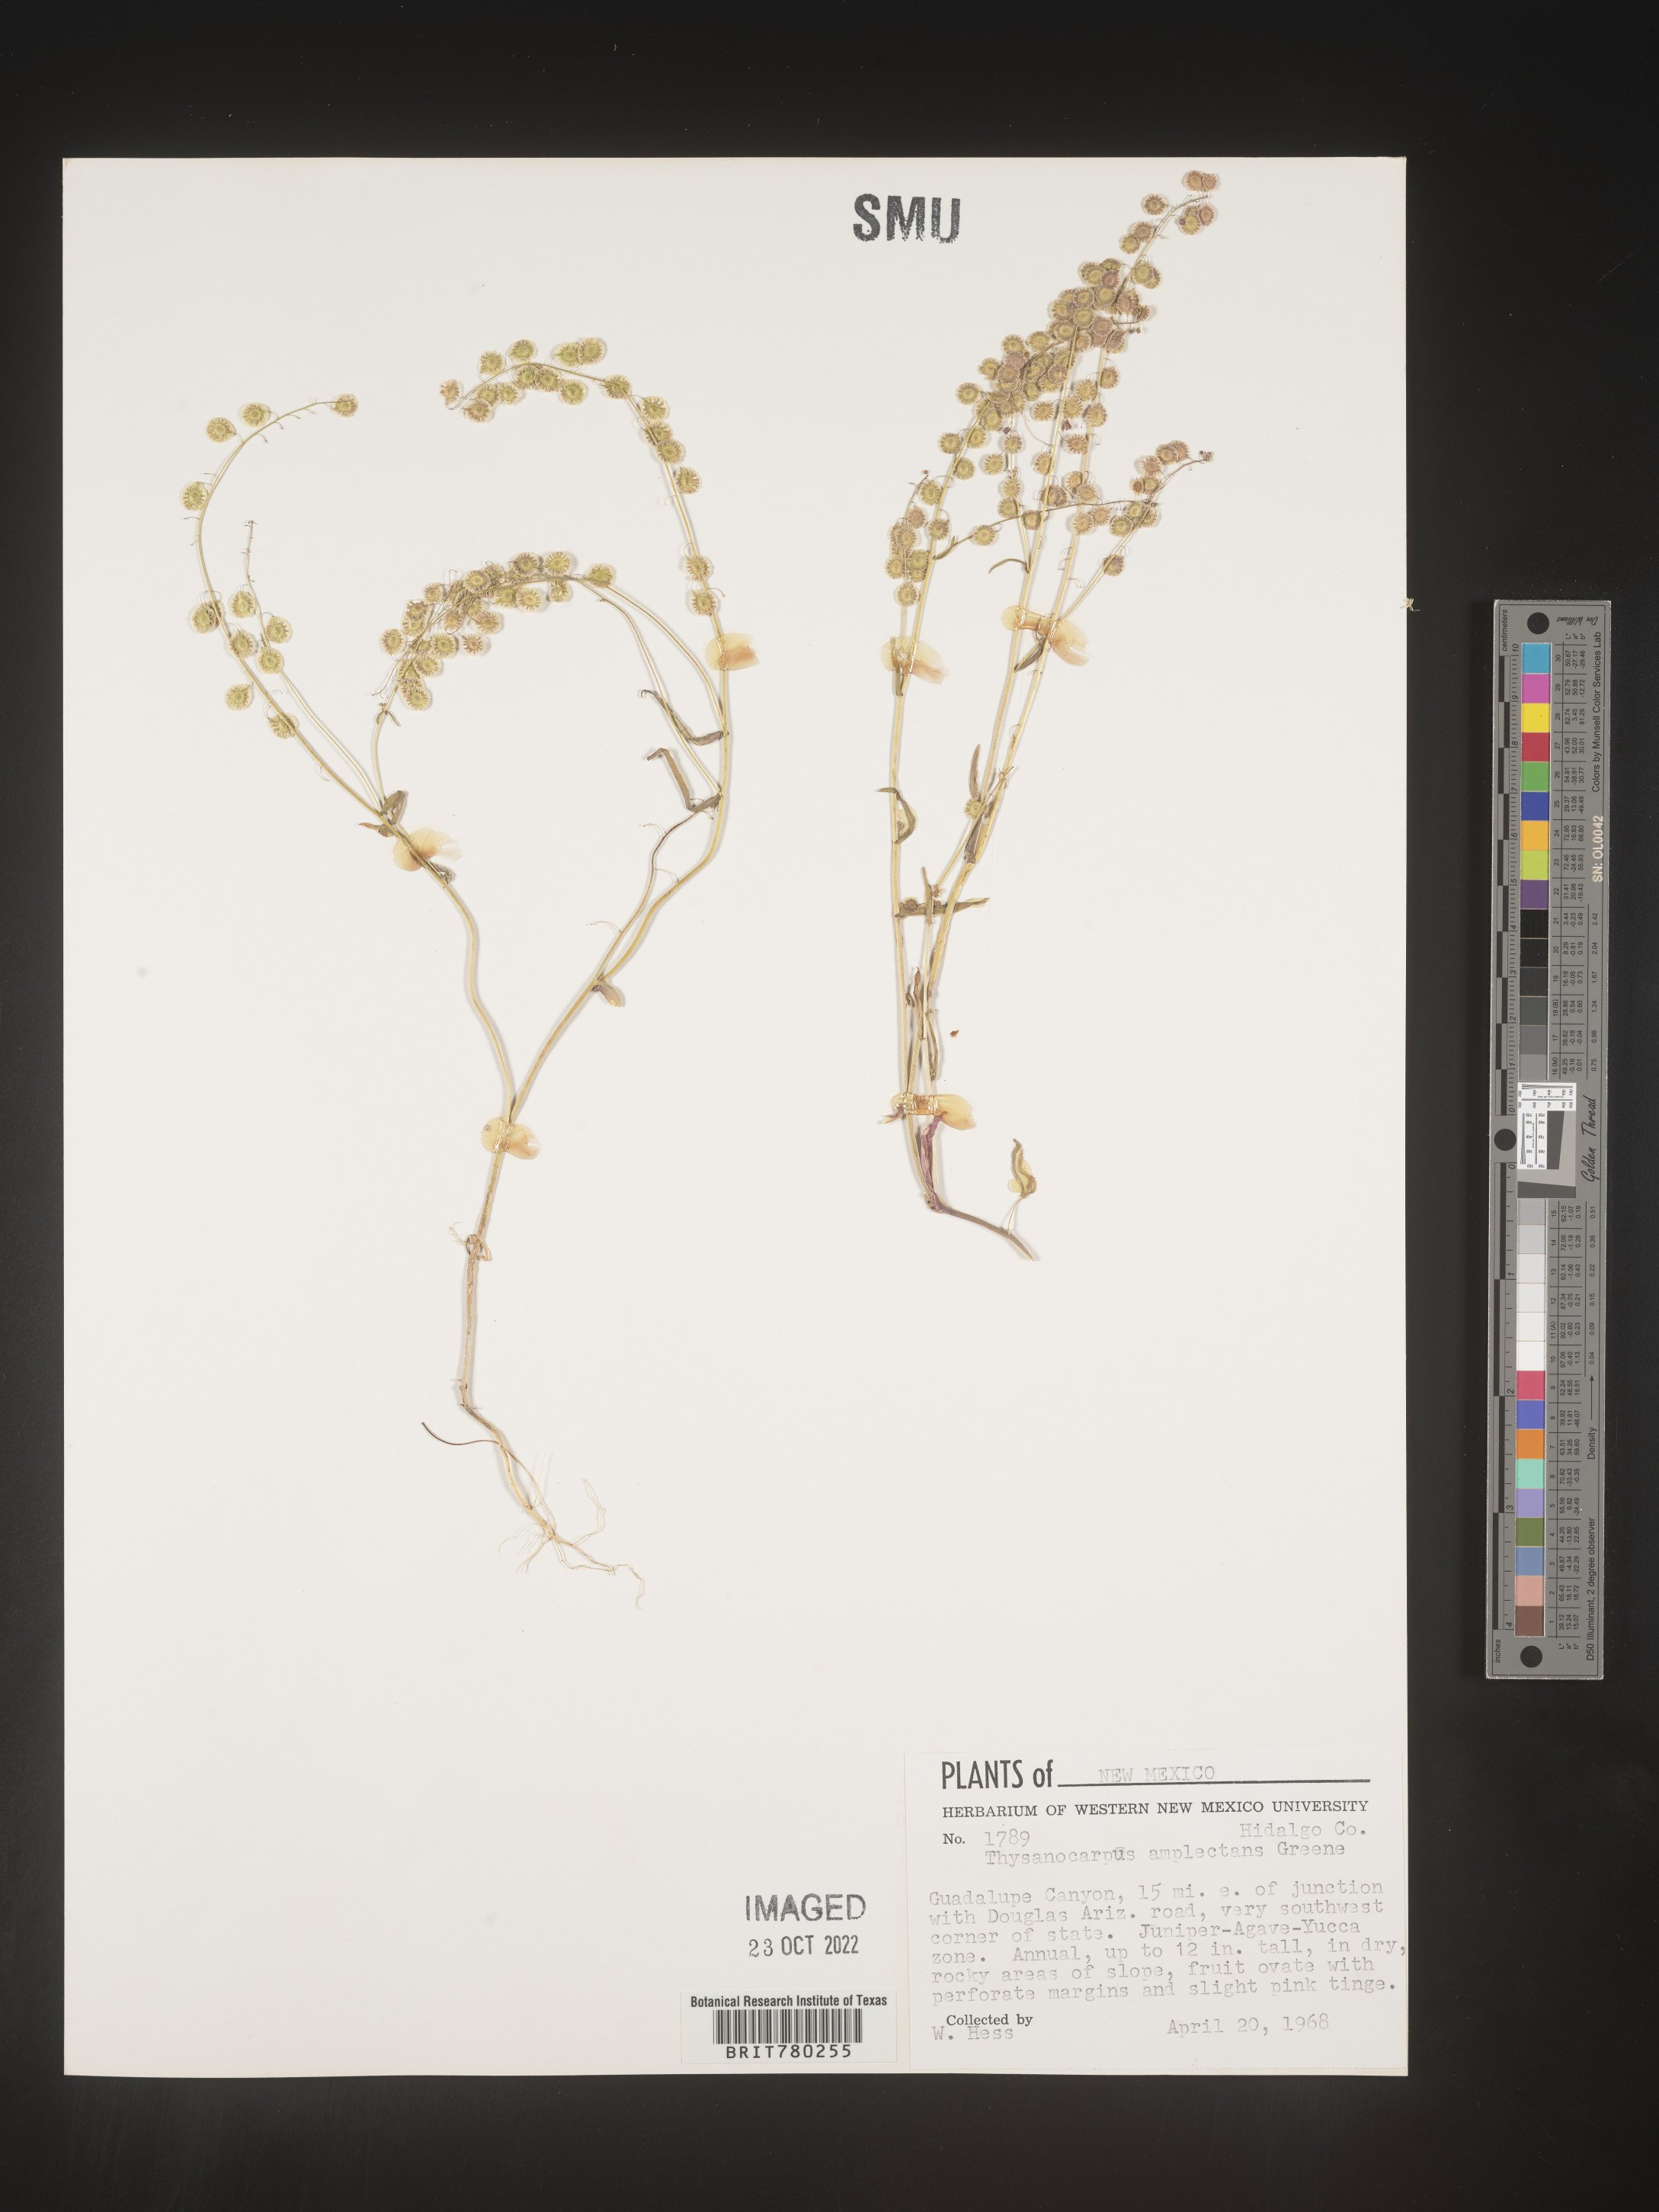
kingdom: Plantae
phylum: Tracheophyta
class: Magnoliopsida
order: Brassicales
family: Brassicaceae
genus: Thysanocarpus
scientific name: Thysanocarpus
